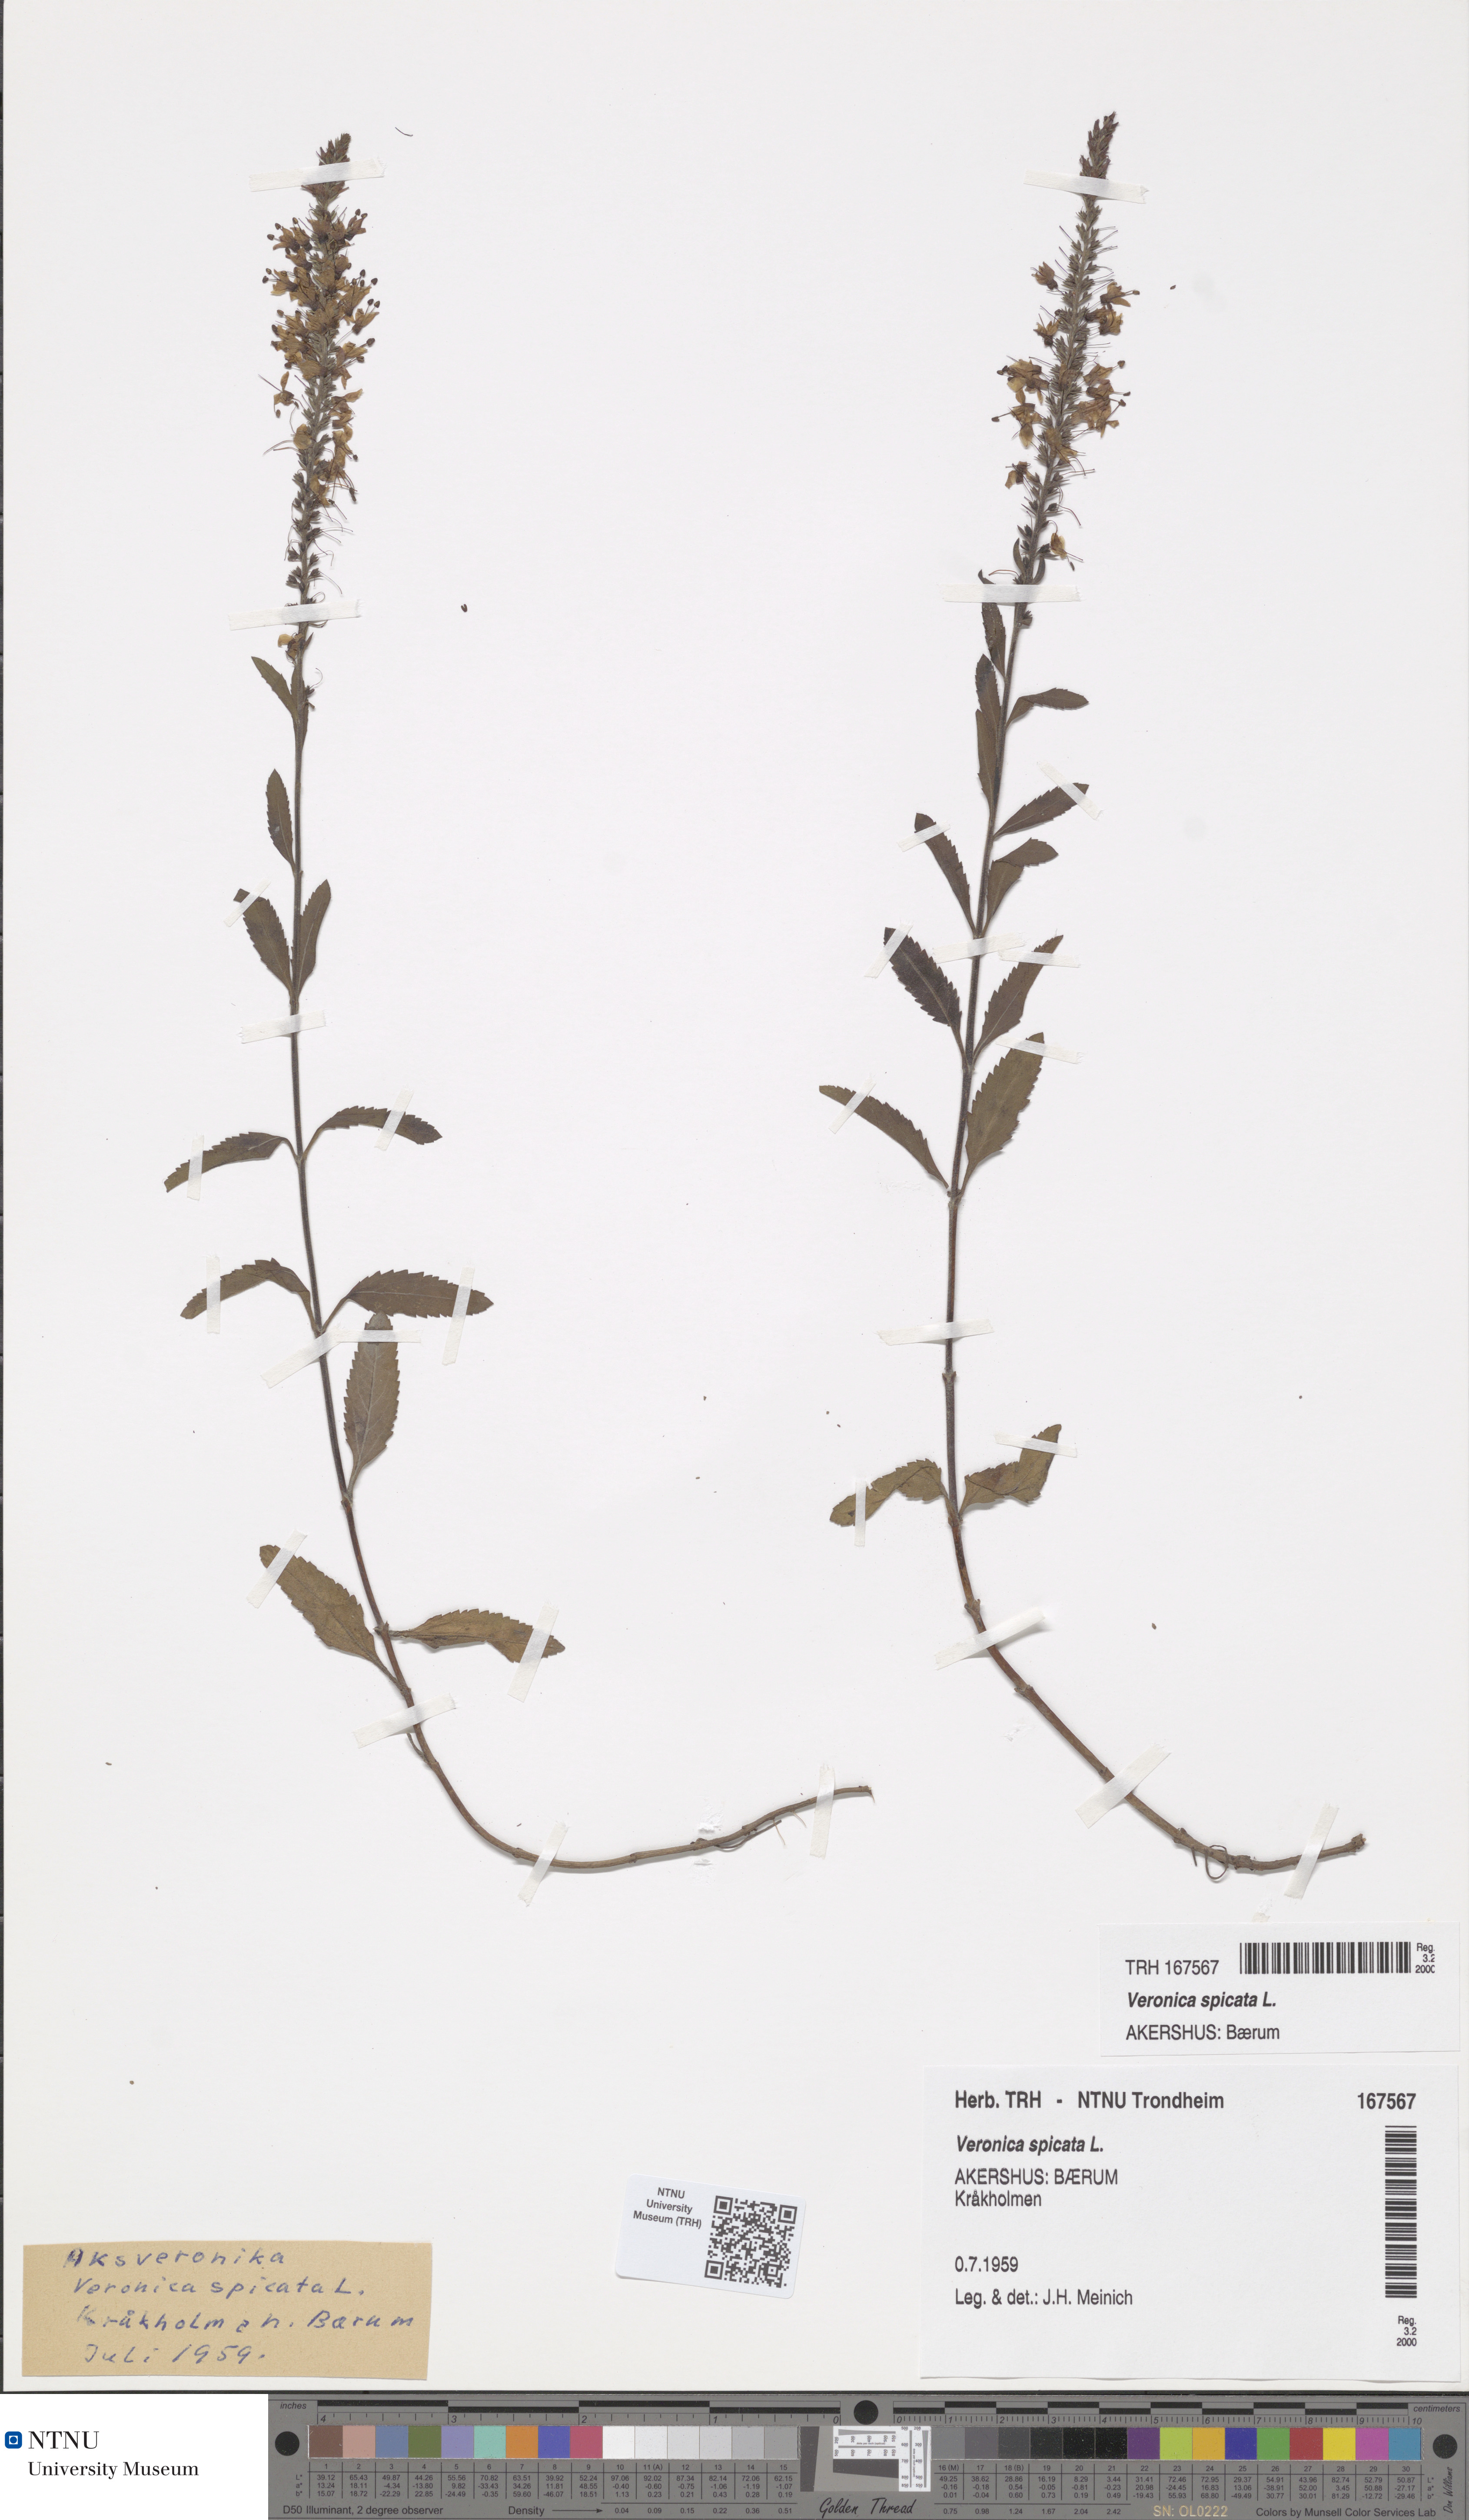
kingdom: Plantae
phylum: Tracheophyta
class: Magnoliopsida
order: Lamiales
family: Plantaginaceae
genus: Veronica
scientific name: Veronica spicata
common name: Spiked speedwell
